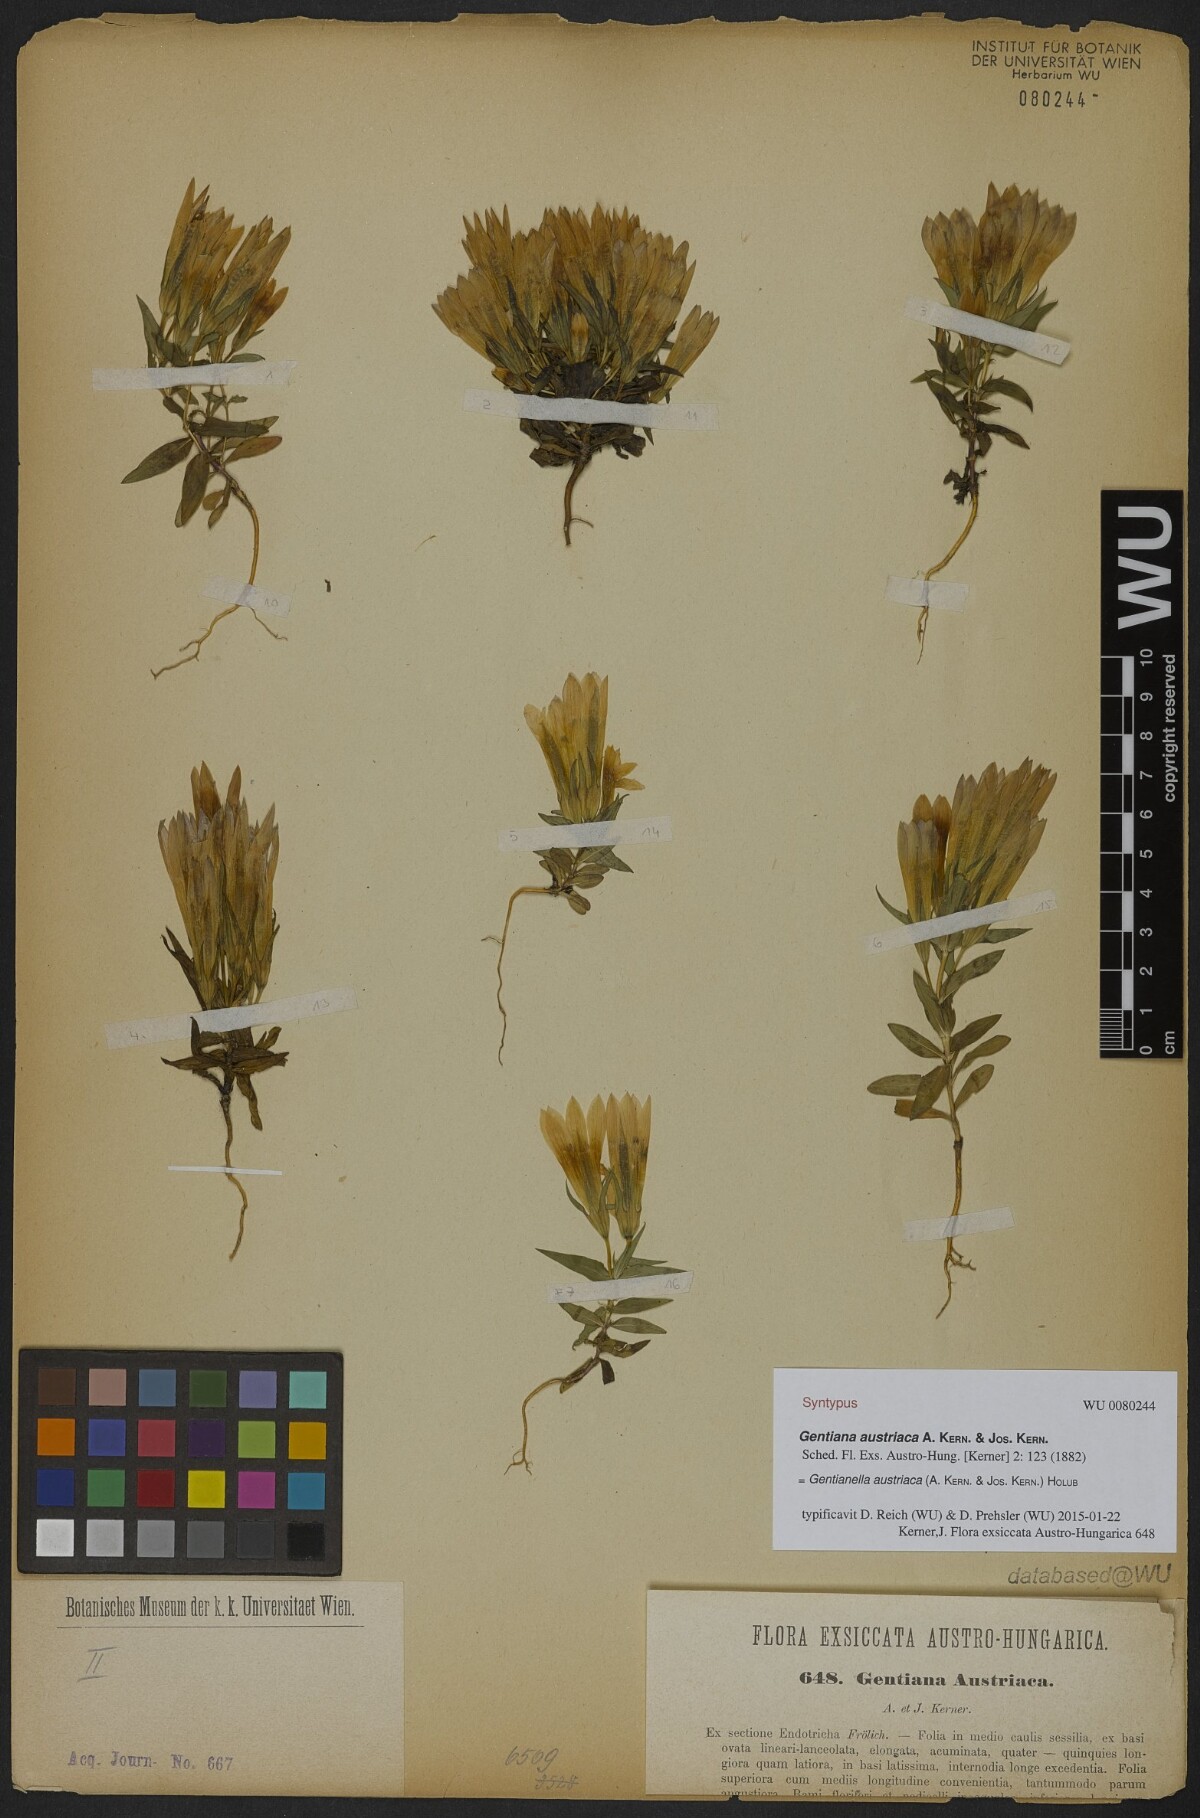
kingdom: Plantae
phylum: Tracheophyta
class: Magnoliopsida
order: Gentianales
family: Gentianaceae
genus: Gentianella
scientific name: Gentianella austriaca
